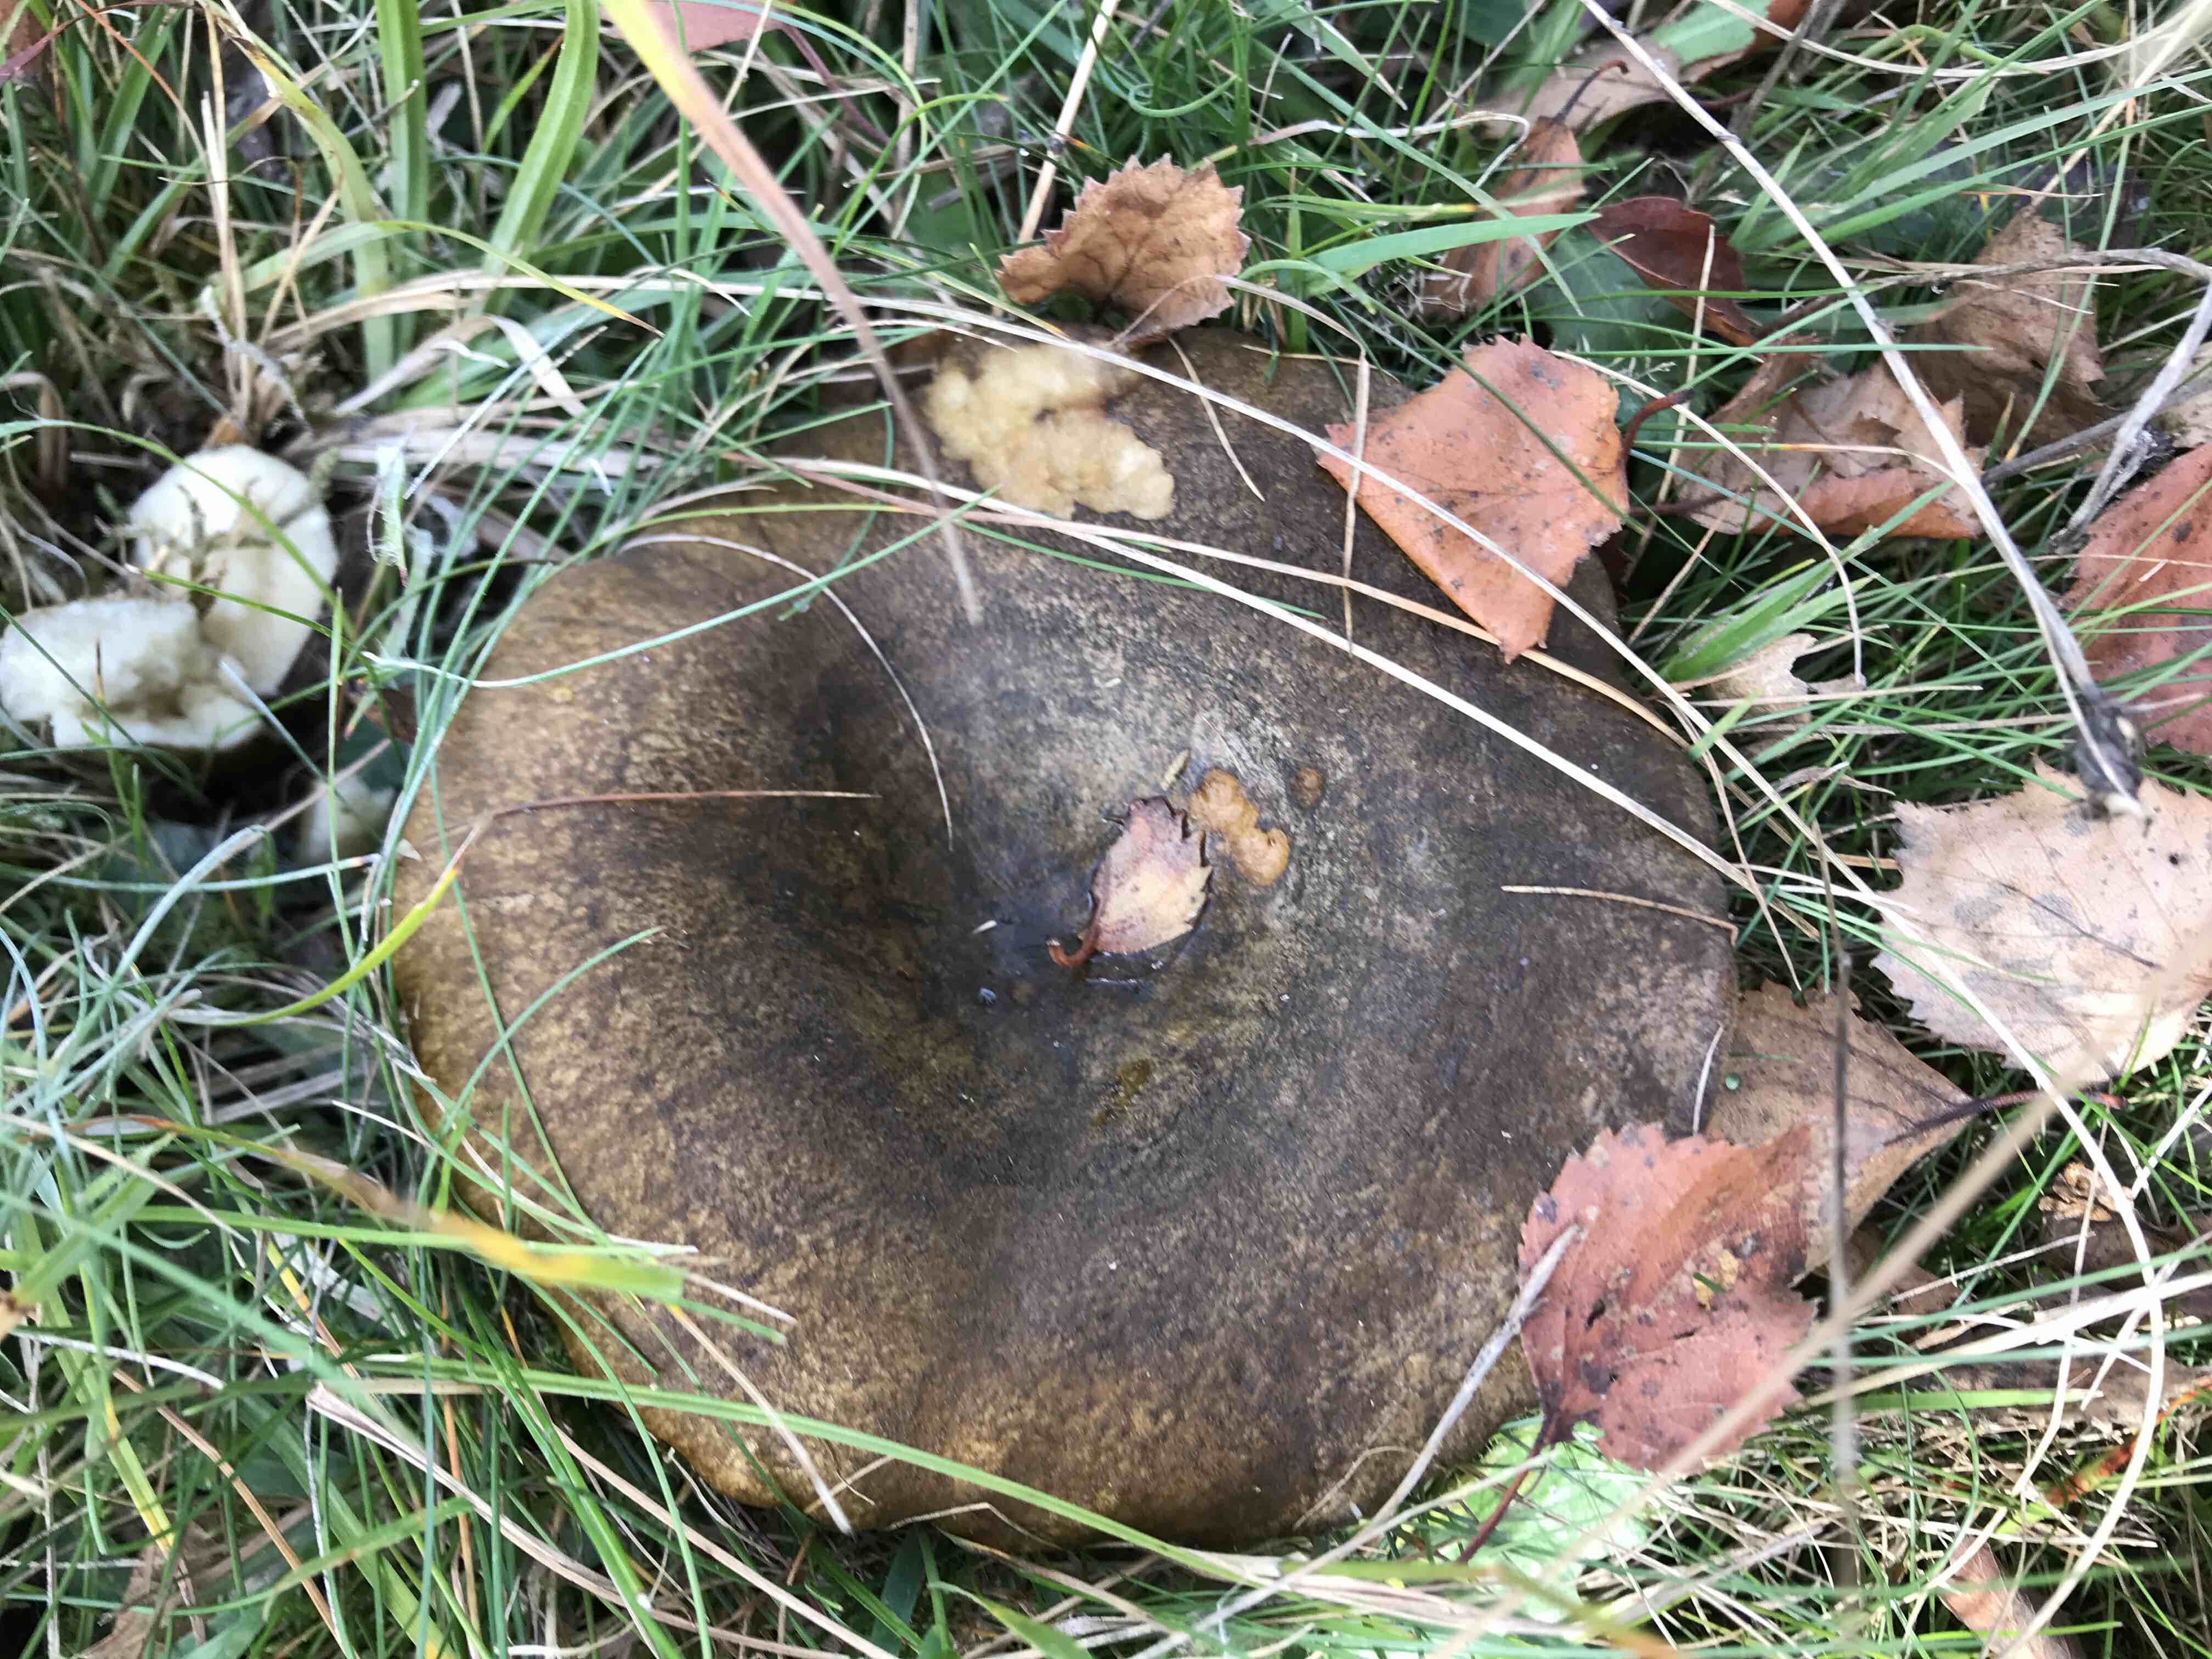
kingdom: Fungi
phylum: Basidiomycota
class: Agaricomycetes
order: Russulales
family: Russulaceae
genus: Lactarius
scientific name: Lactarius necator
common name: manddraber-mælkehat
